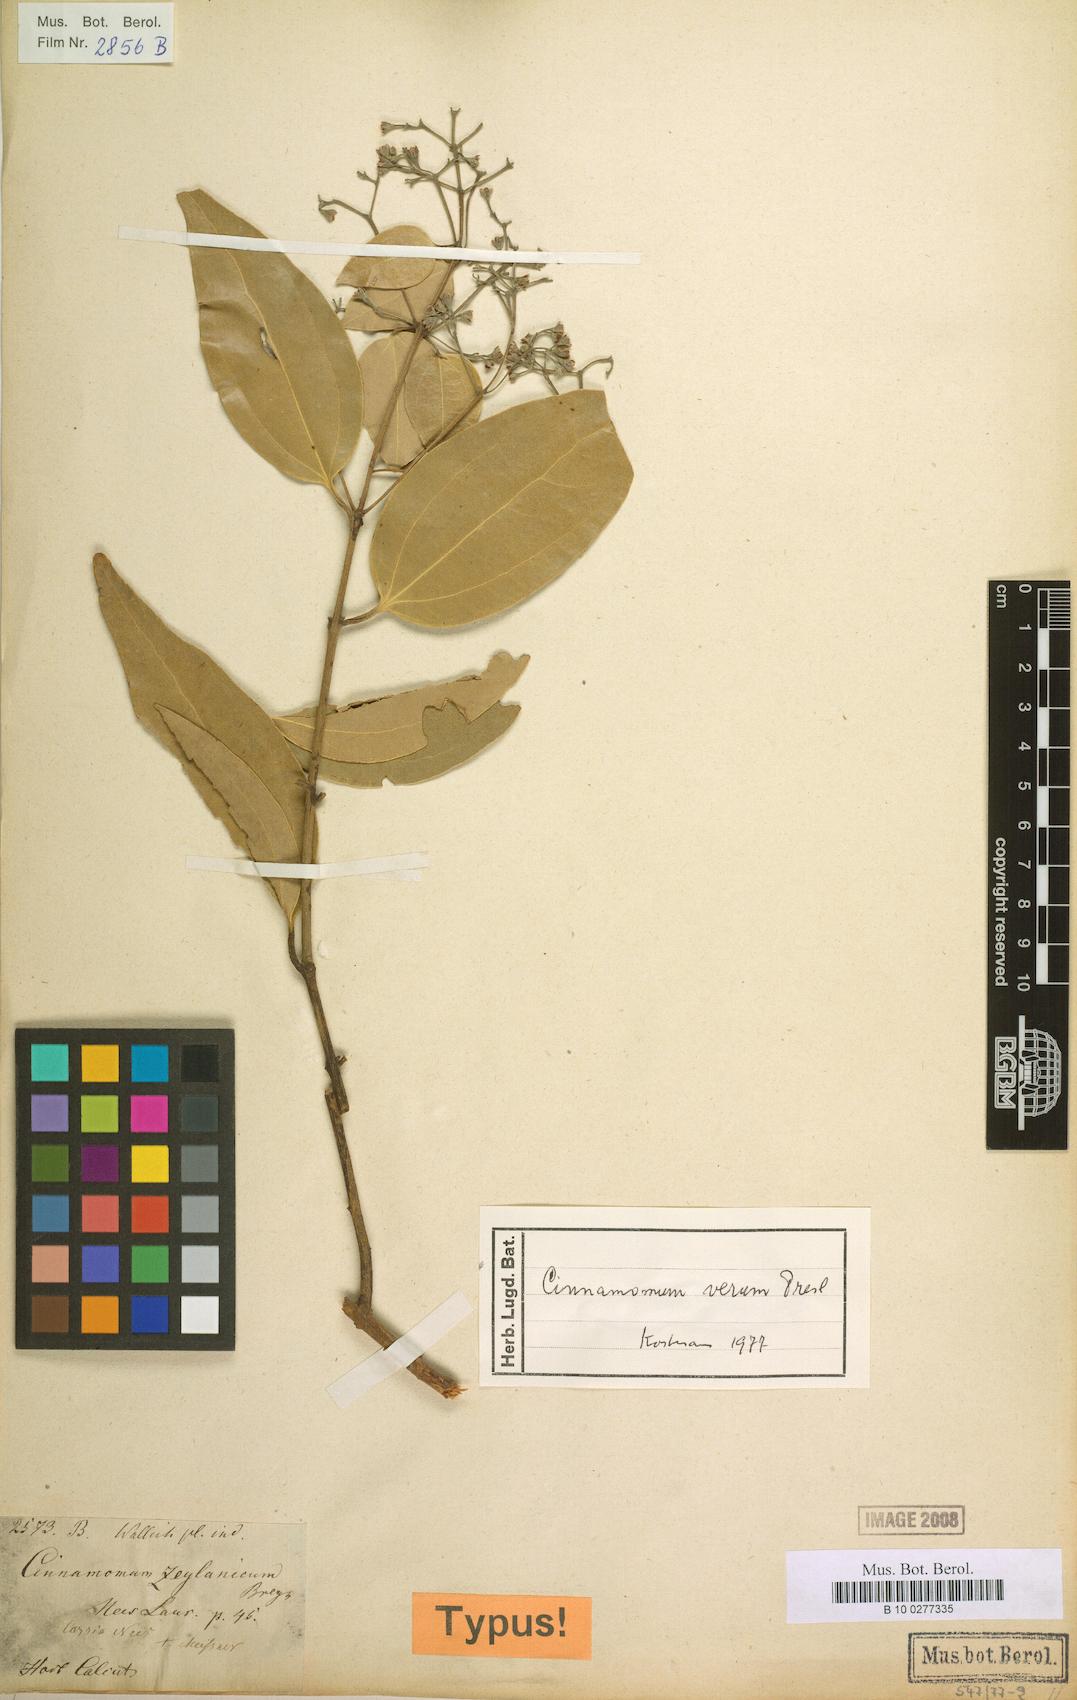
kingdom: Plantae
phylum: Tracheophyta
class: Magnoliopsida
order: Laurales
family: Lauraceae
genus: Cinnamomum
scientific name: Cinnamomum verum
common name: Cinnamon
